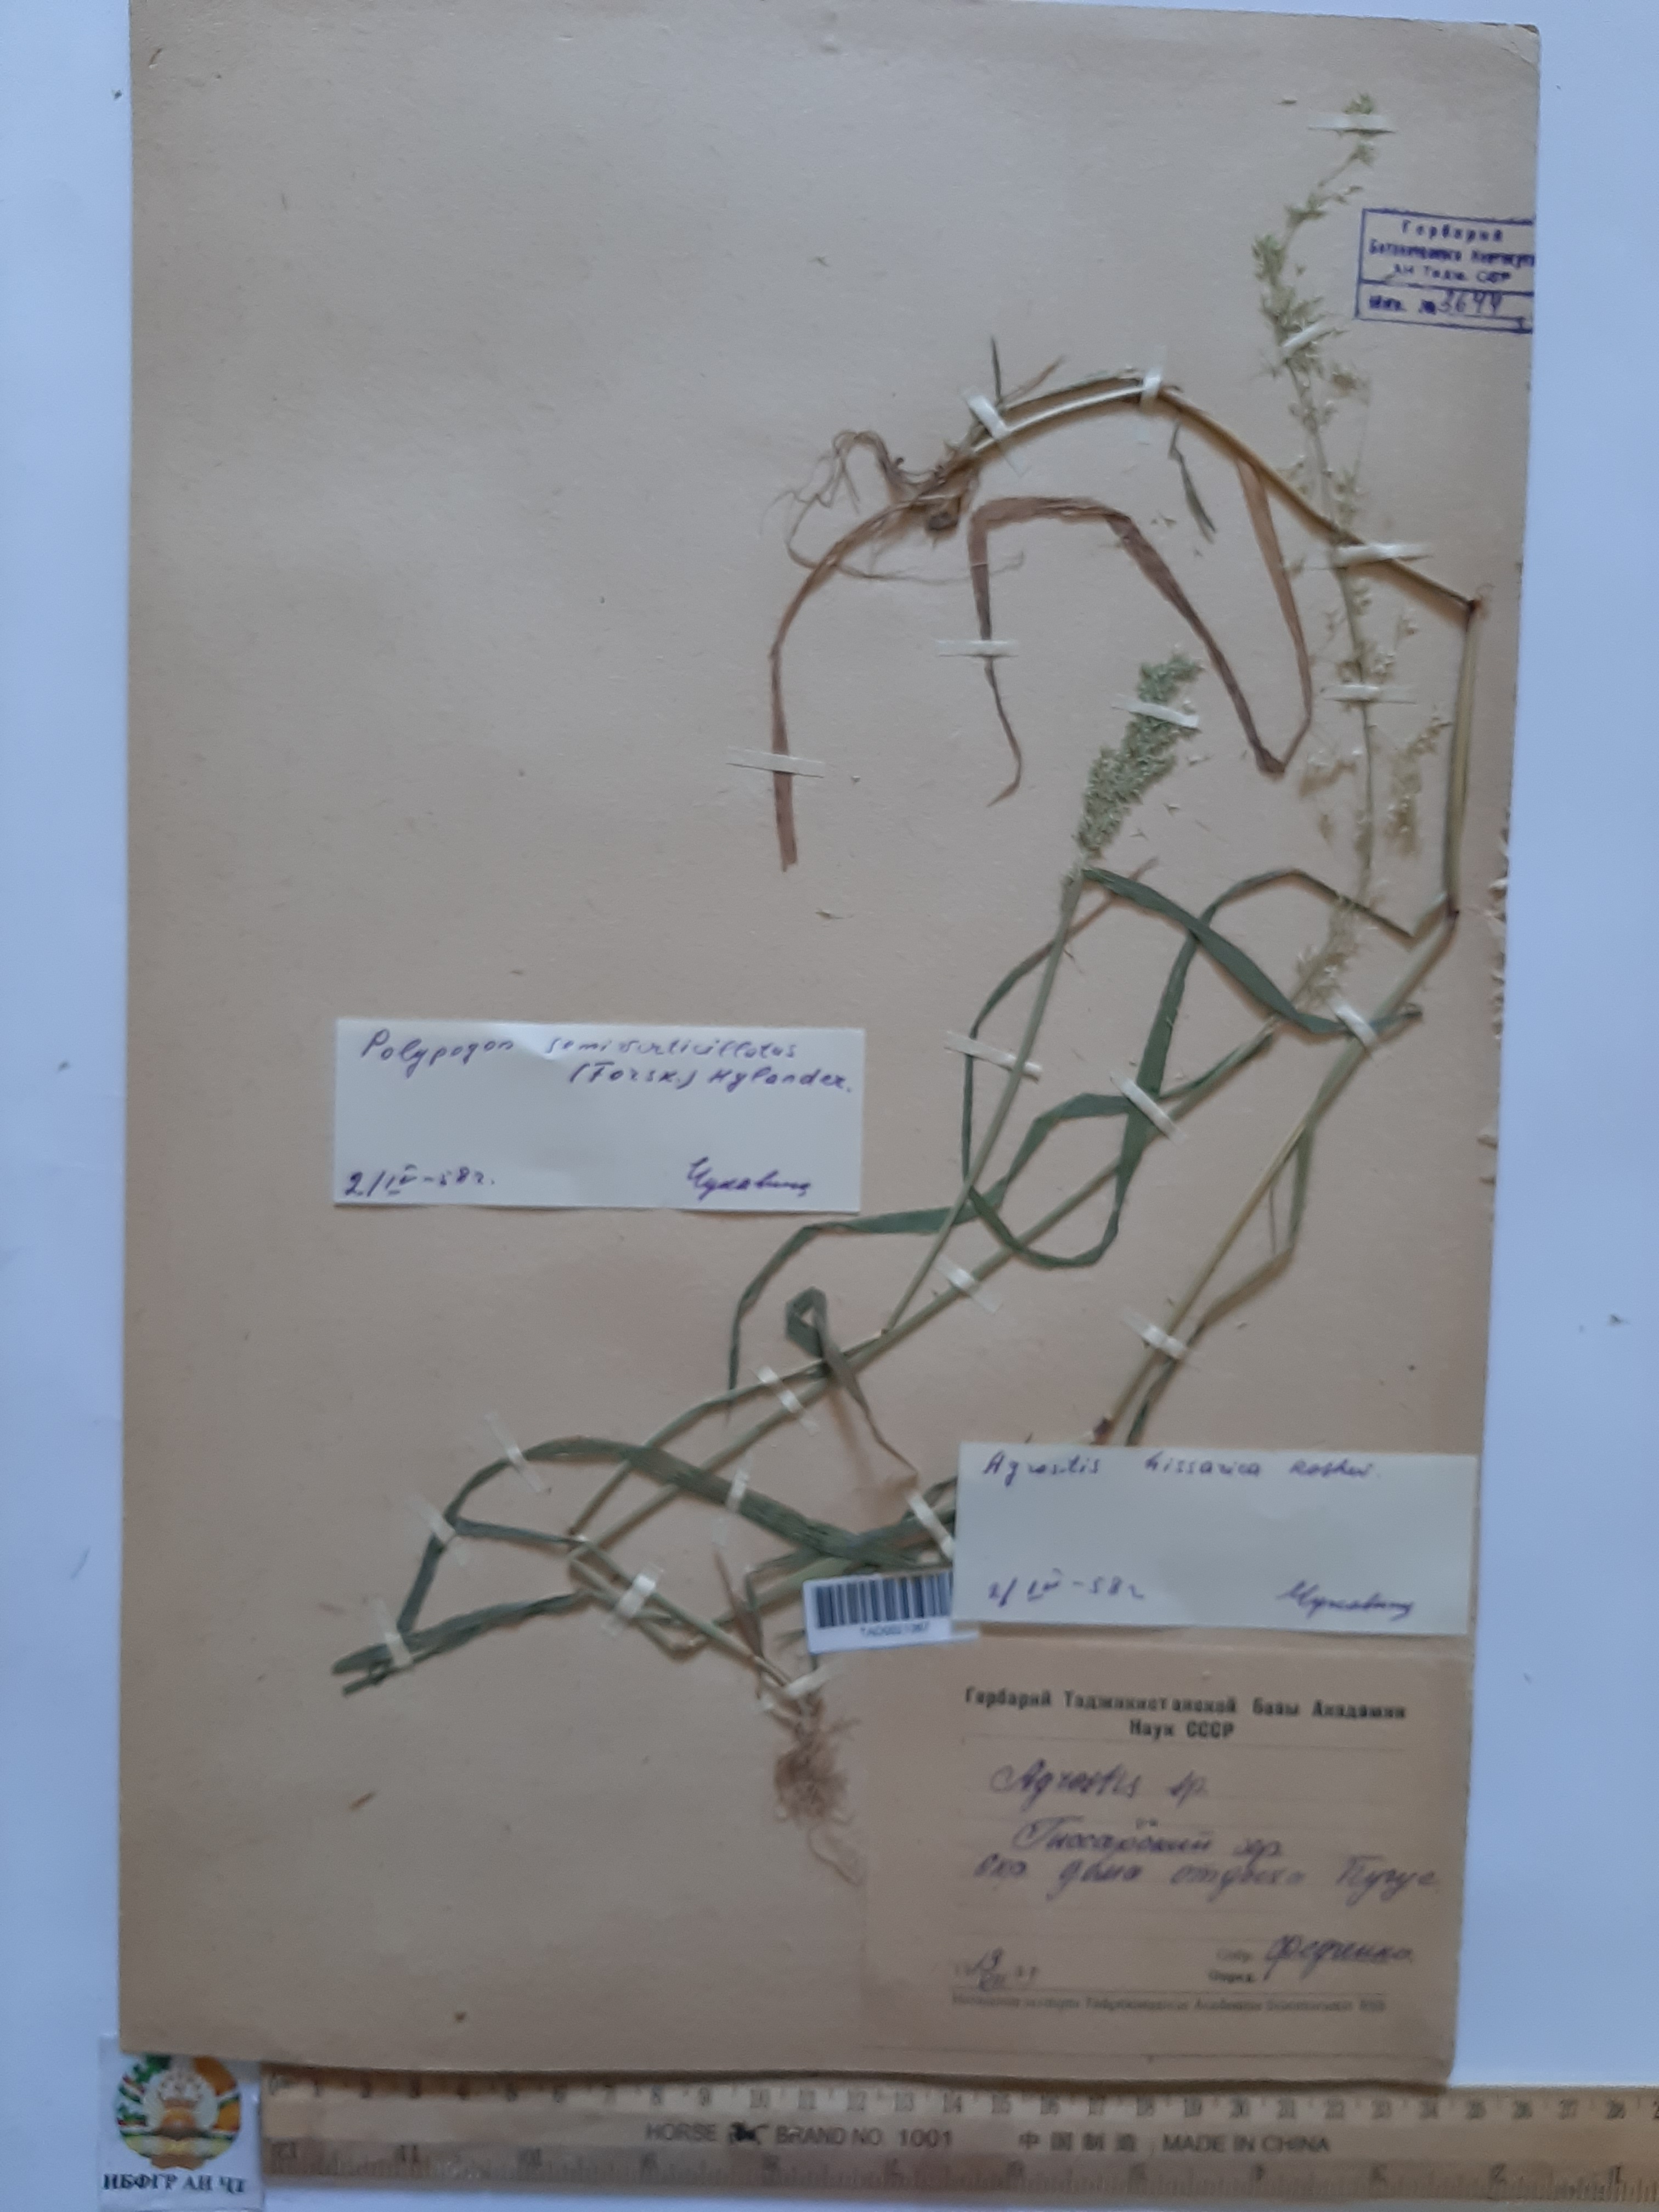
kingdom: Plantae
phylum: Tracheophyta
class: Liliopsida
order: Poales
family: Poaceae
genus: Polypogon
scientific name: Polypogon hissaricus
